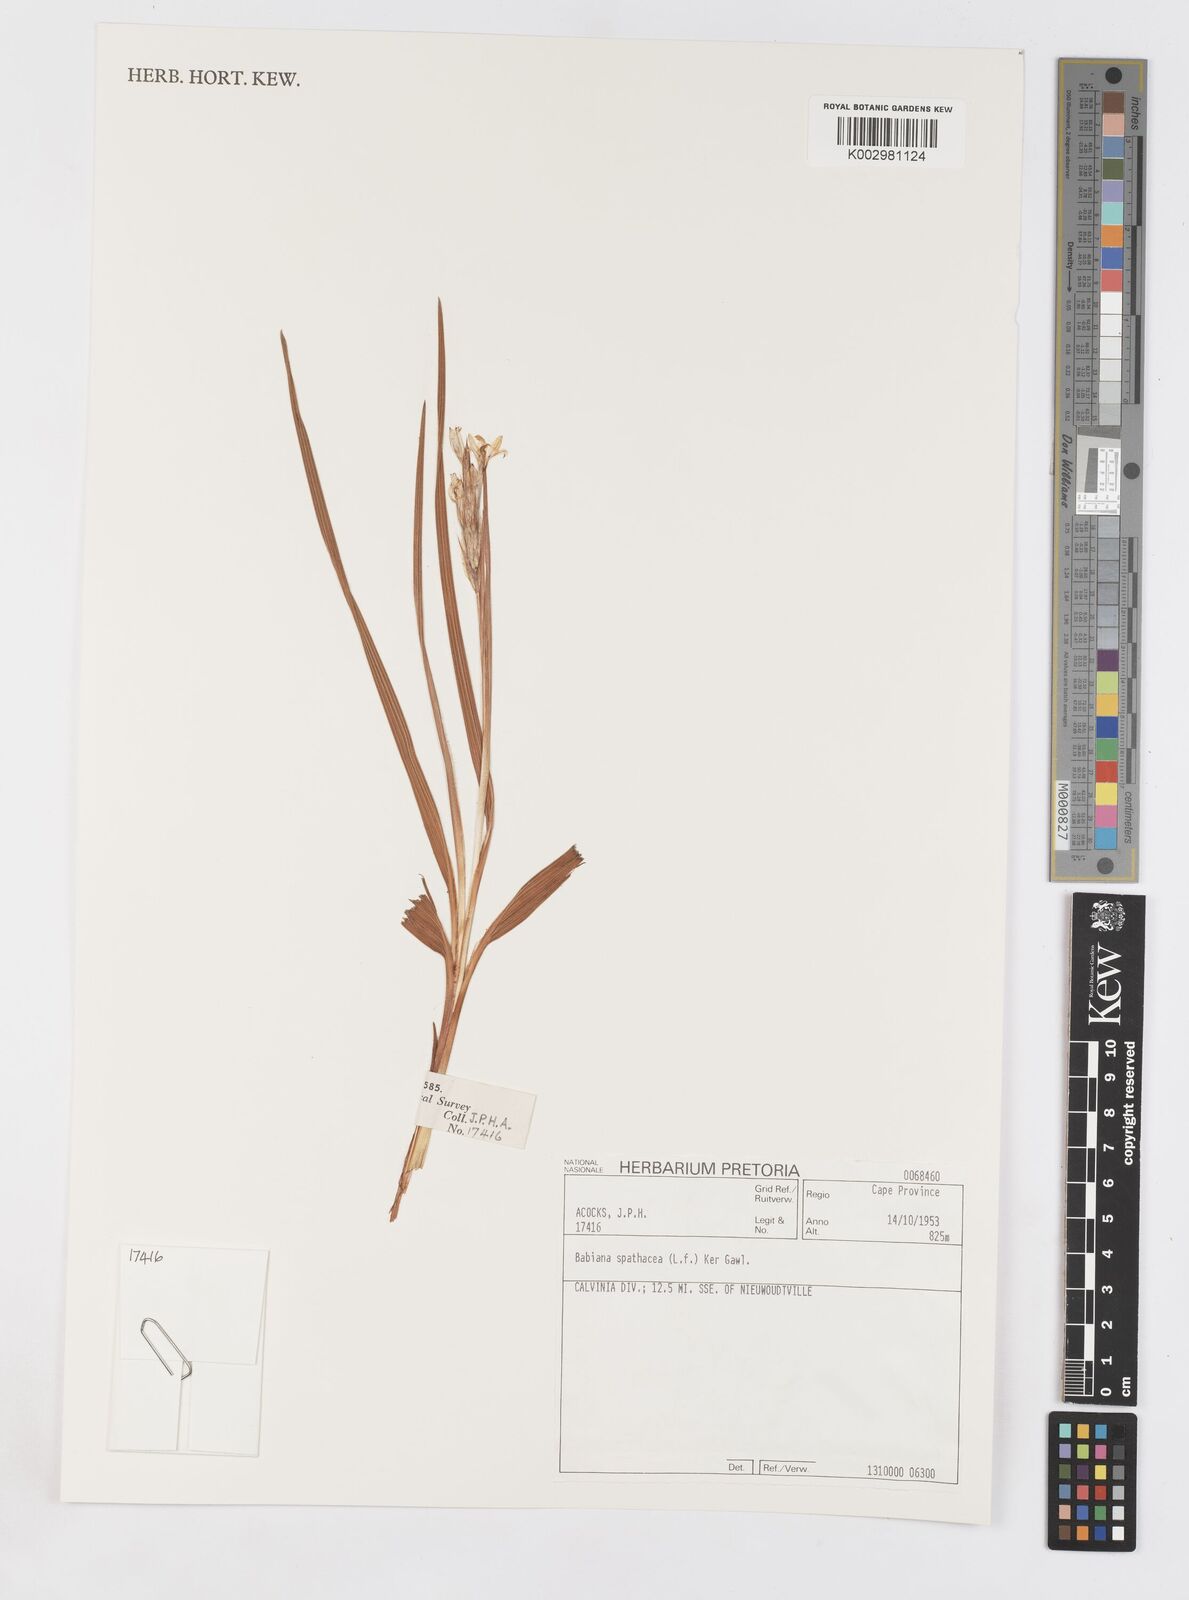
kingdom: Plantae
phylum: Tracheophyta
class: Liliopsida
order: Asparagales
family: Iridaceae
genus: Babiana
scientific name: Babiana spathacea
